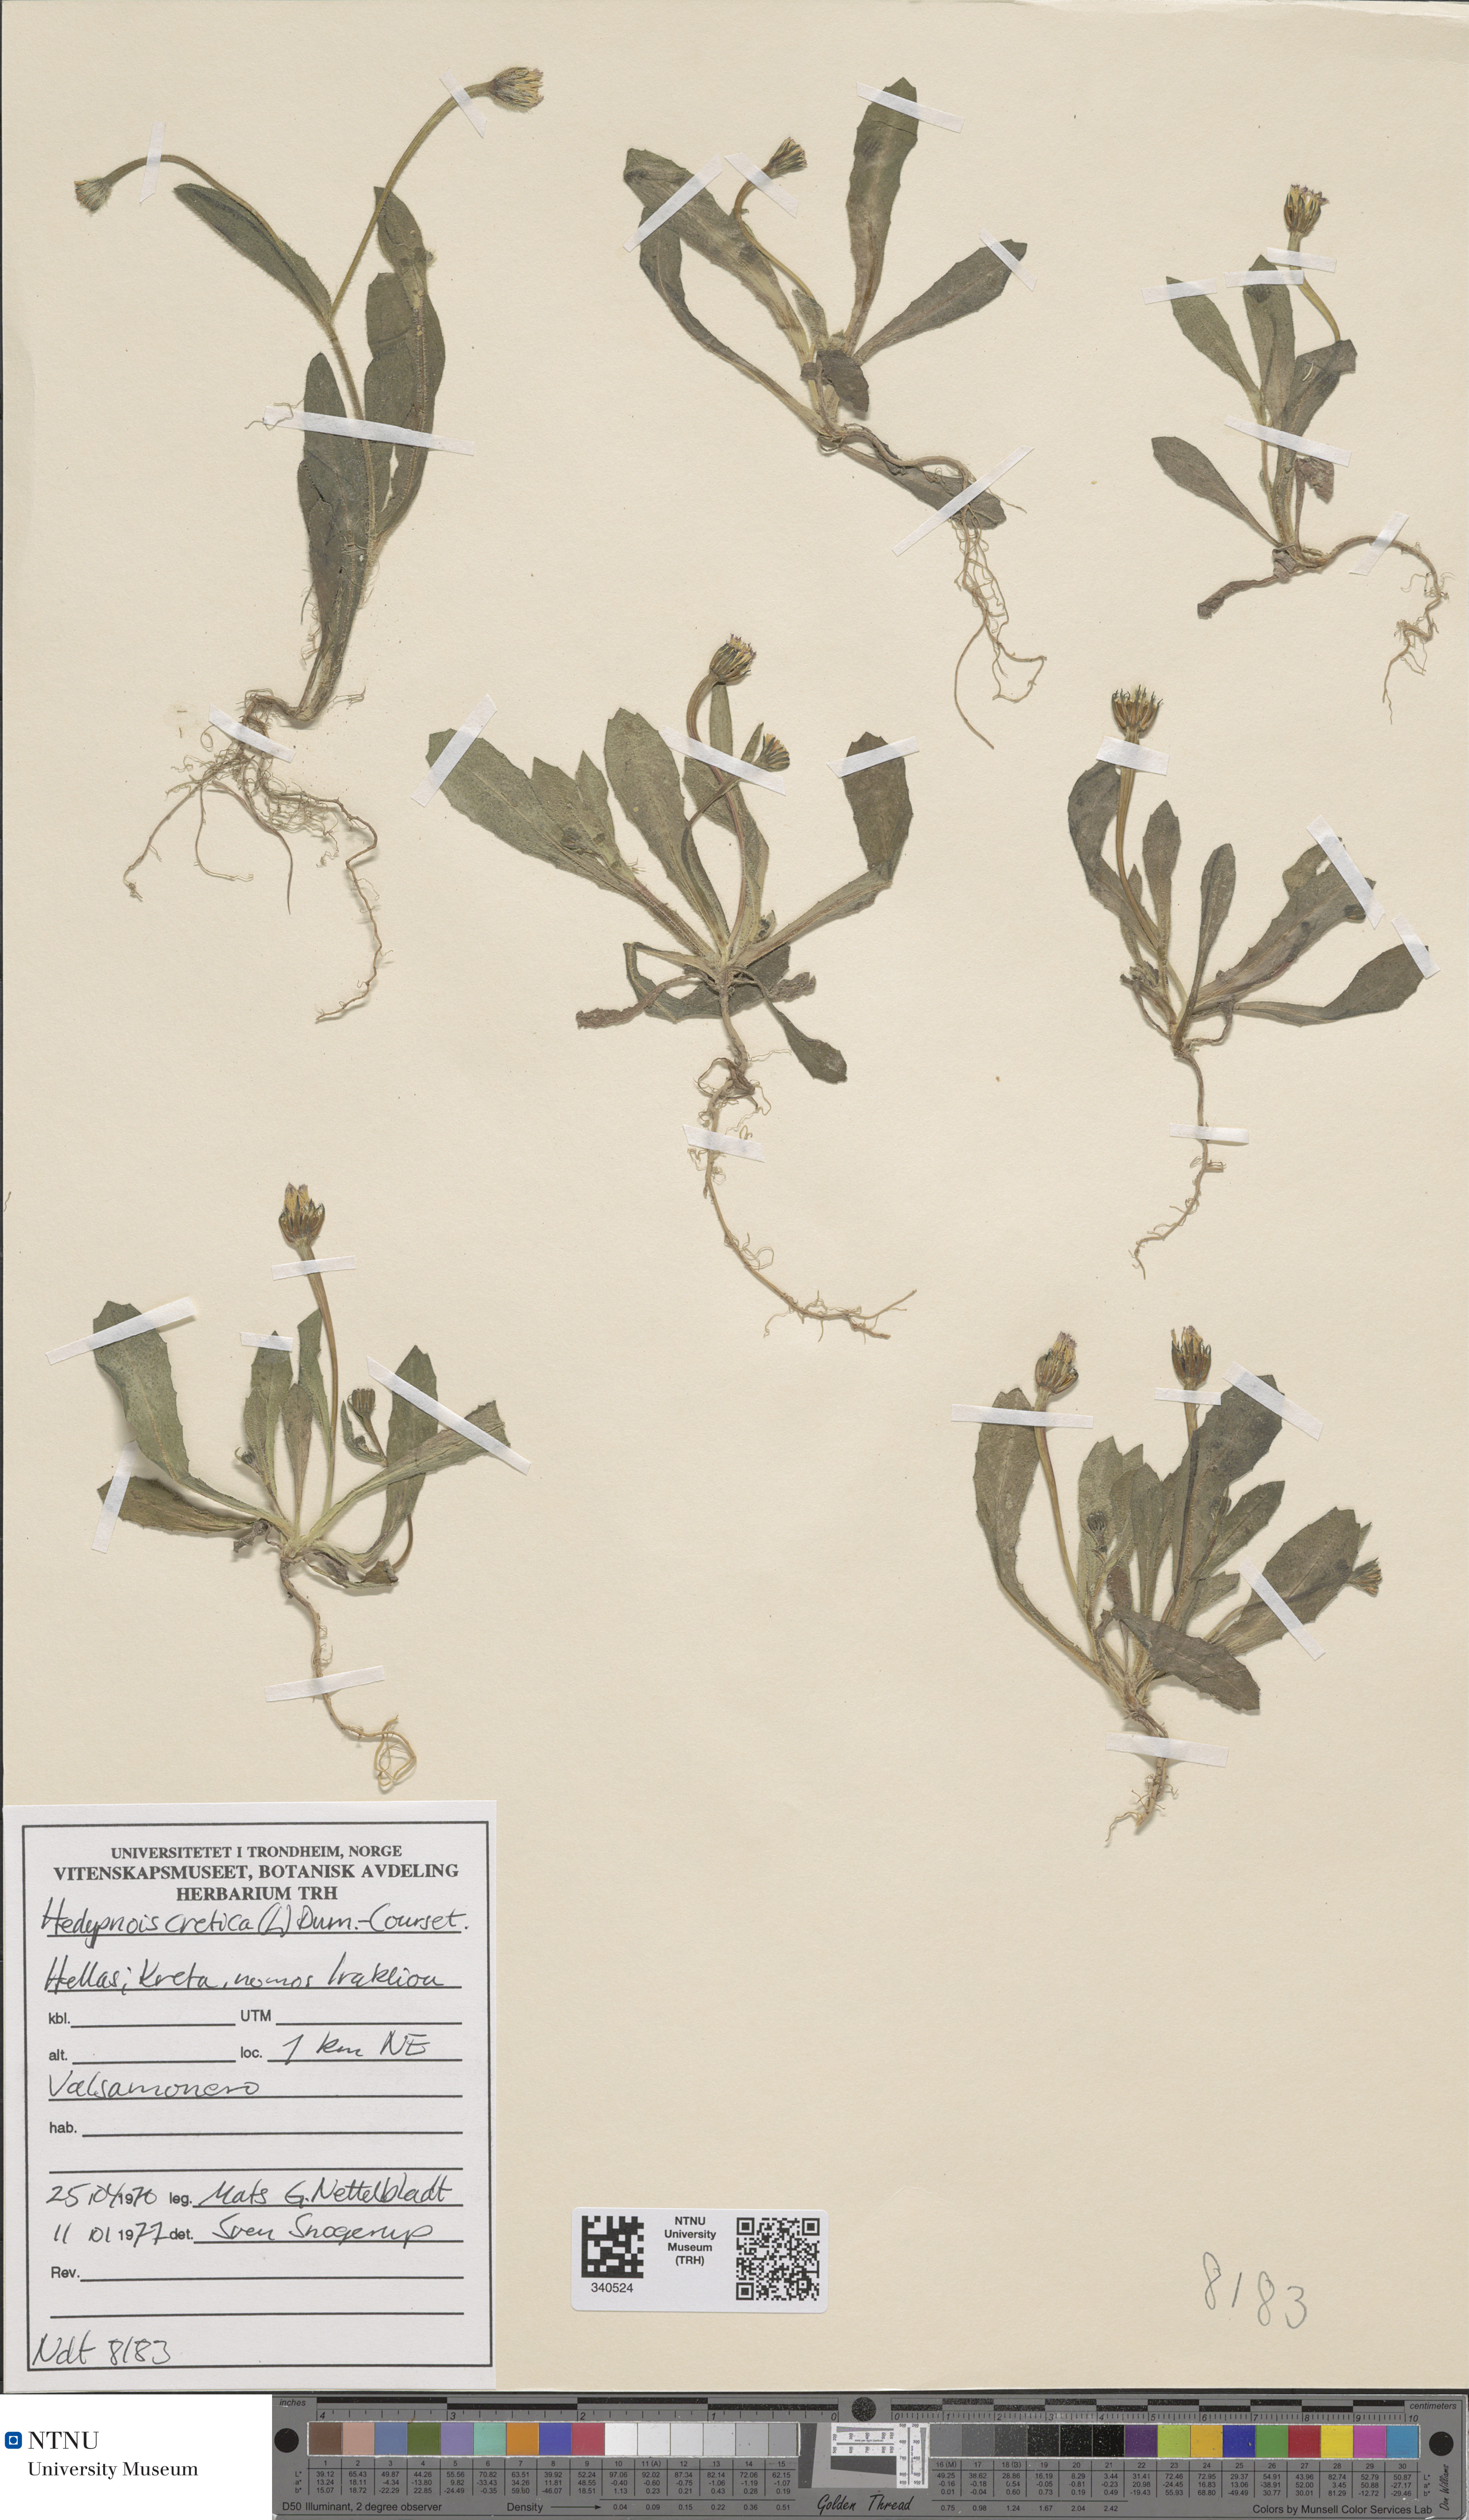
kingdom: Plantae
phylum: Tracheophyta
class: Magnoliopsida
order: Asterales
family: Asteraceae
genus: Hedypnois
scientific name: Hedypnois cretica
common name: Scaly hawkbit
